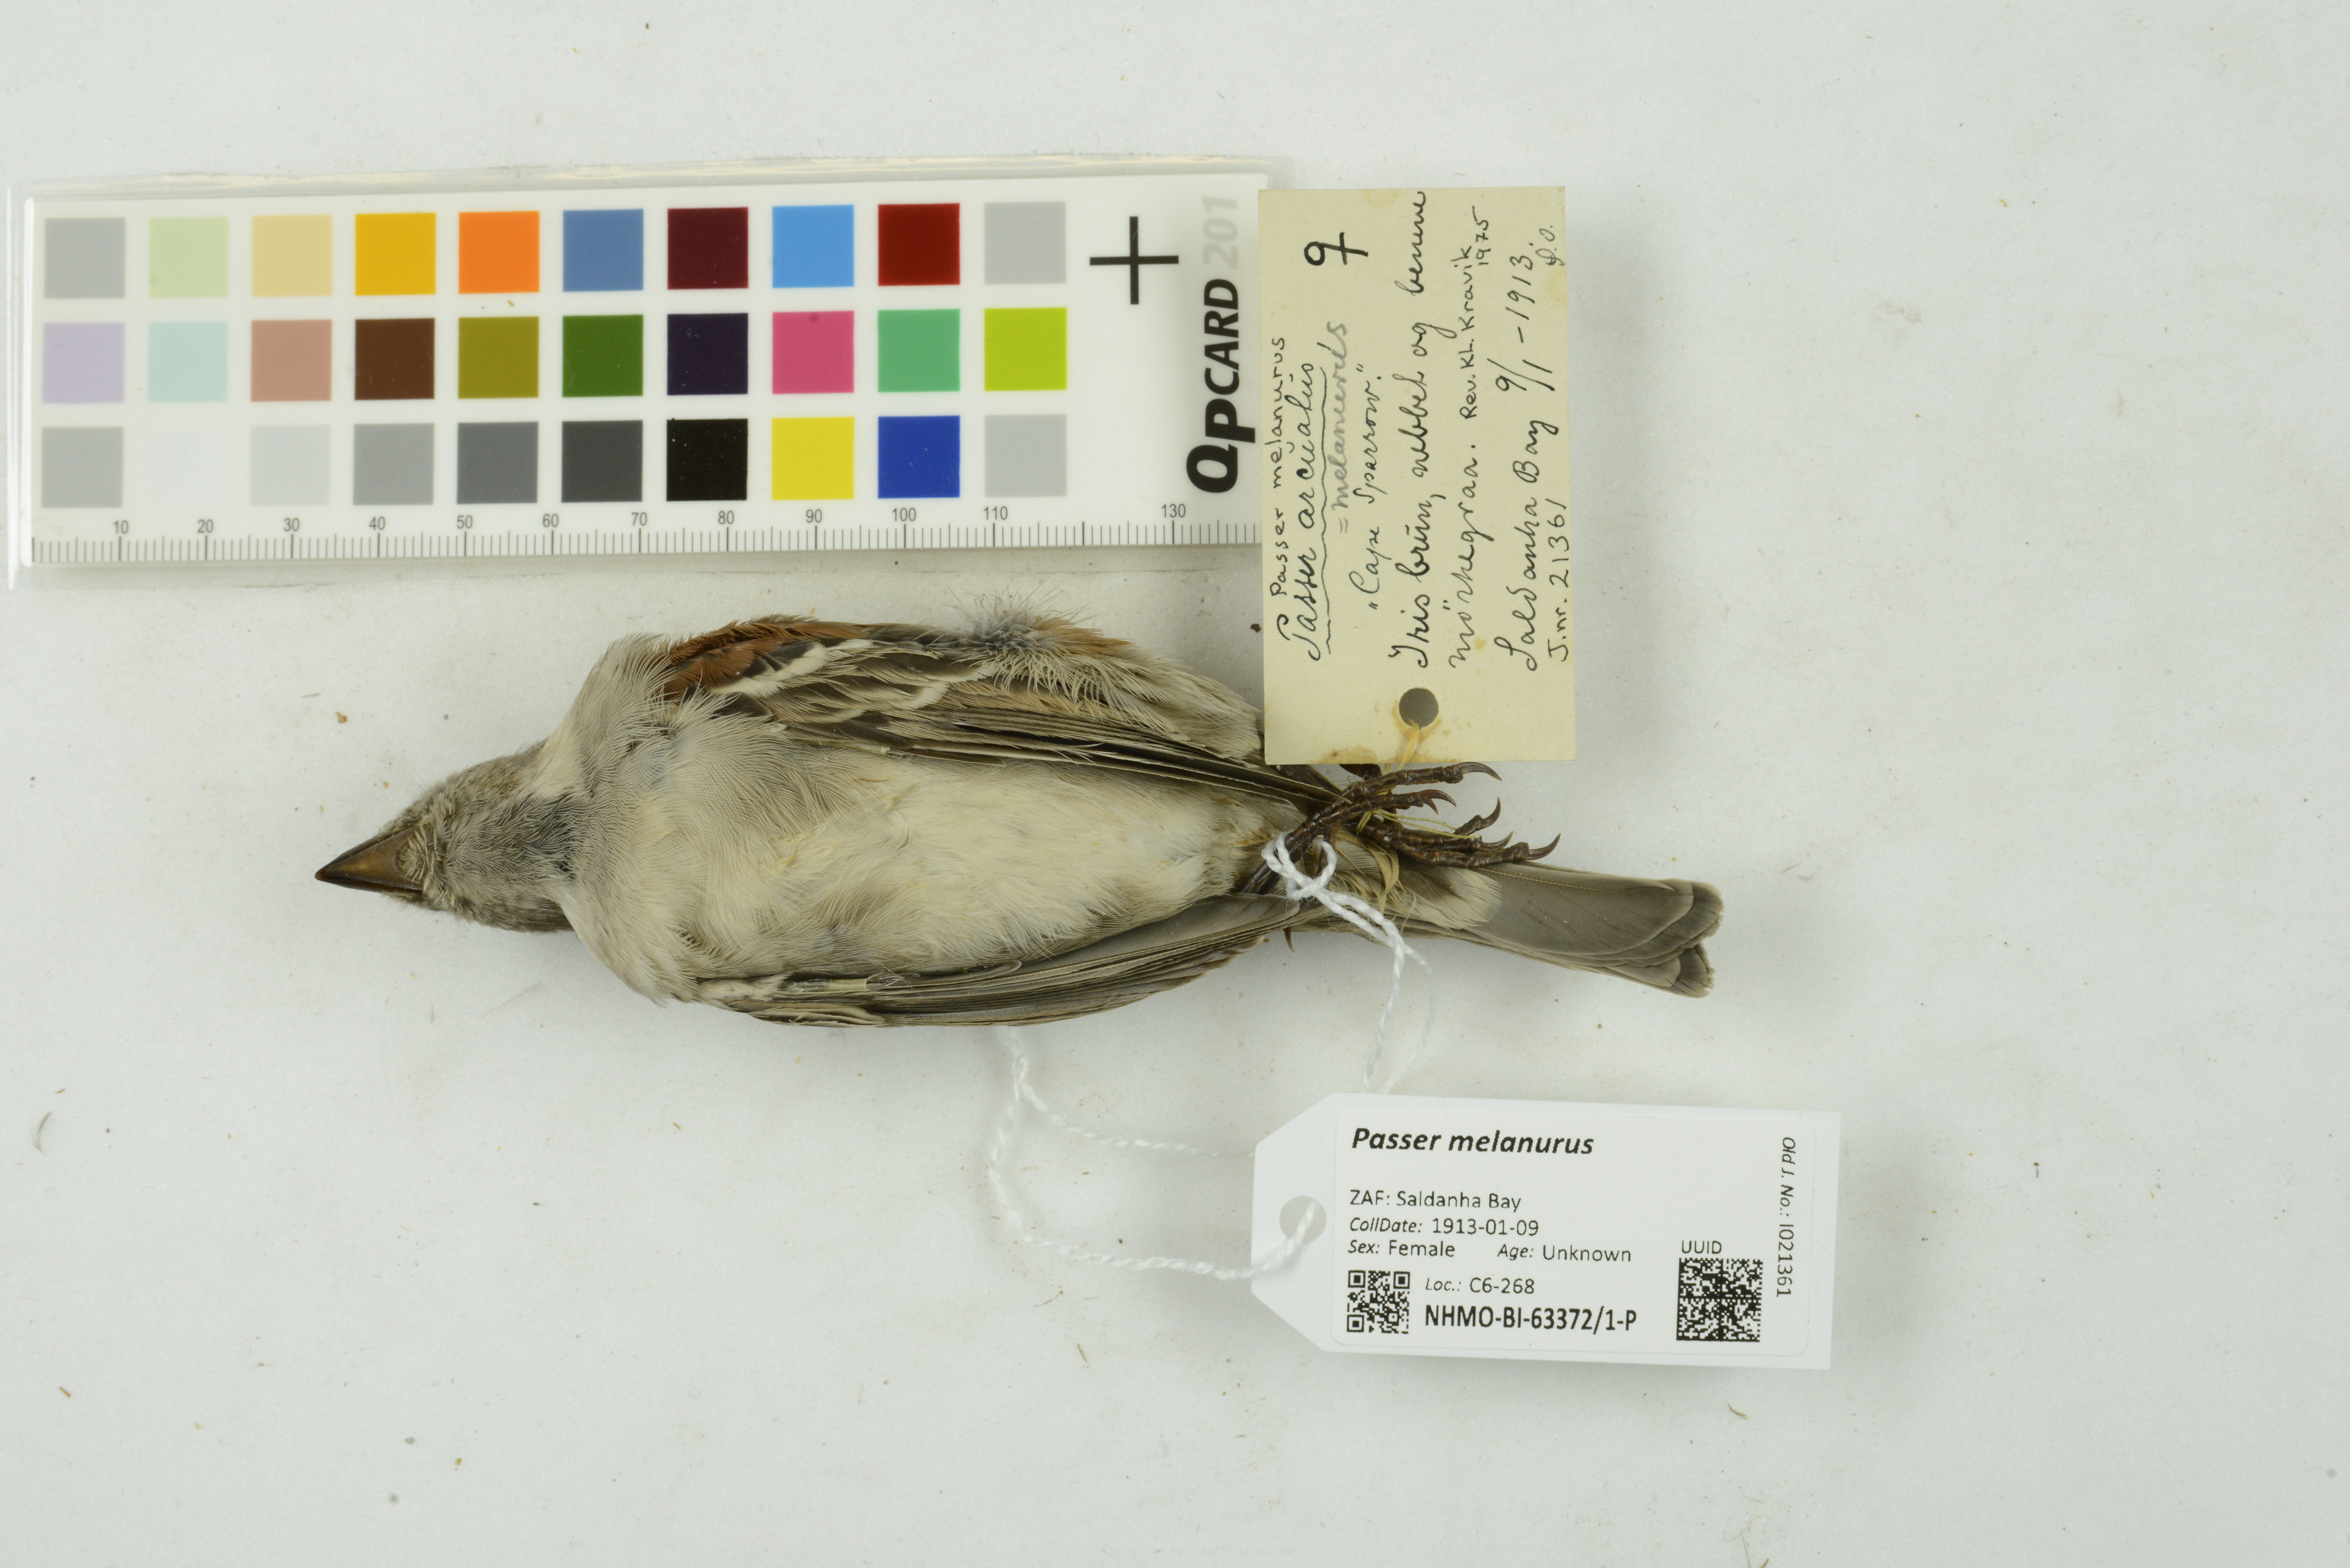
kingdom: Animalia
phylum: Chordata
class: Aves
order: Passeriformes
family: Passeridae
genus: Passer
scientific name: Passer melanurus
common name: Cape sparrow
